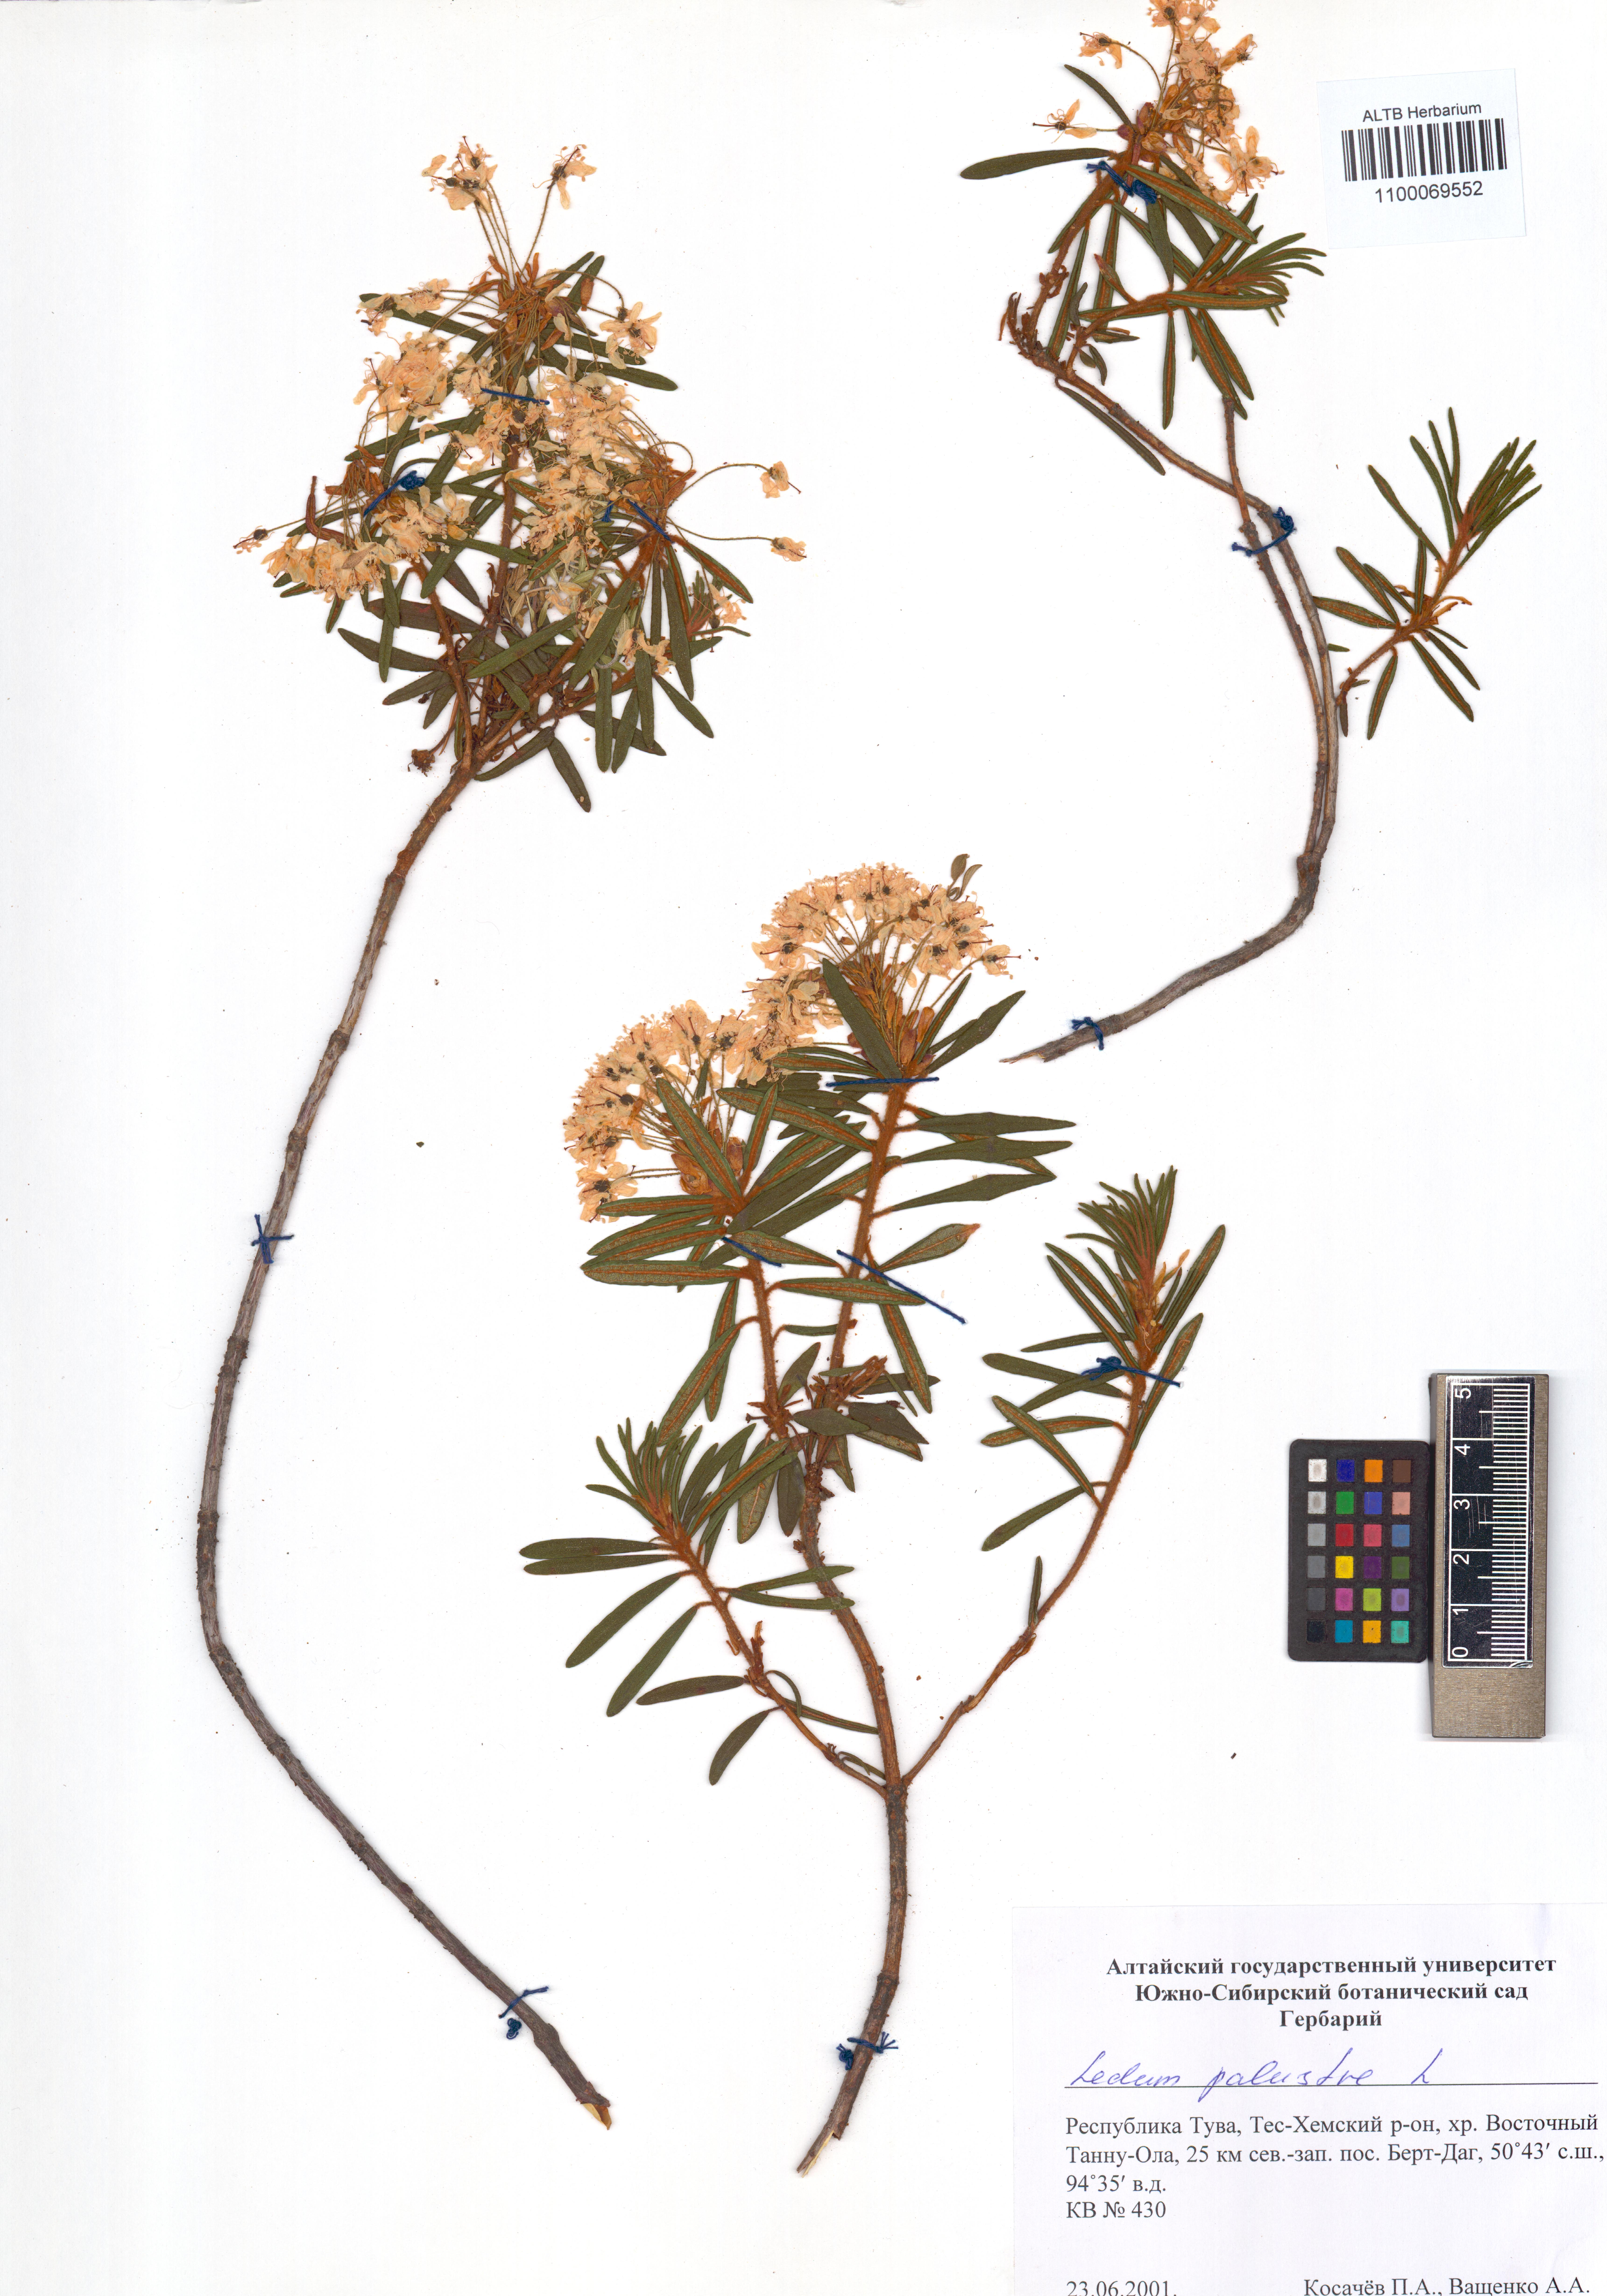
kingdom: Plantae
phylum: Tracheophyta
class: Magnoliopsida
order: Ericales
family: Ericaceae
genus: Rhododendron
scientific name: Rhododendron tomentosum
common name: Marsh labrador tea
